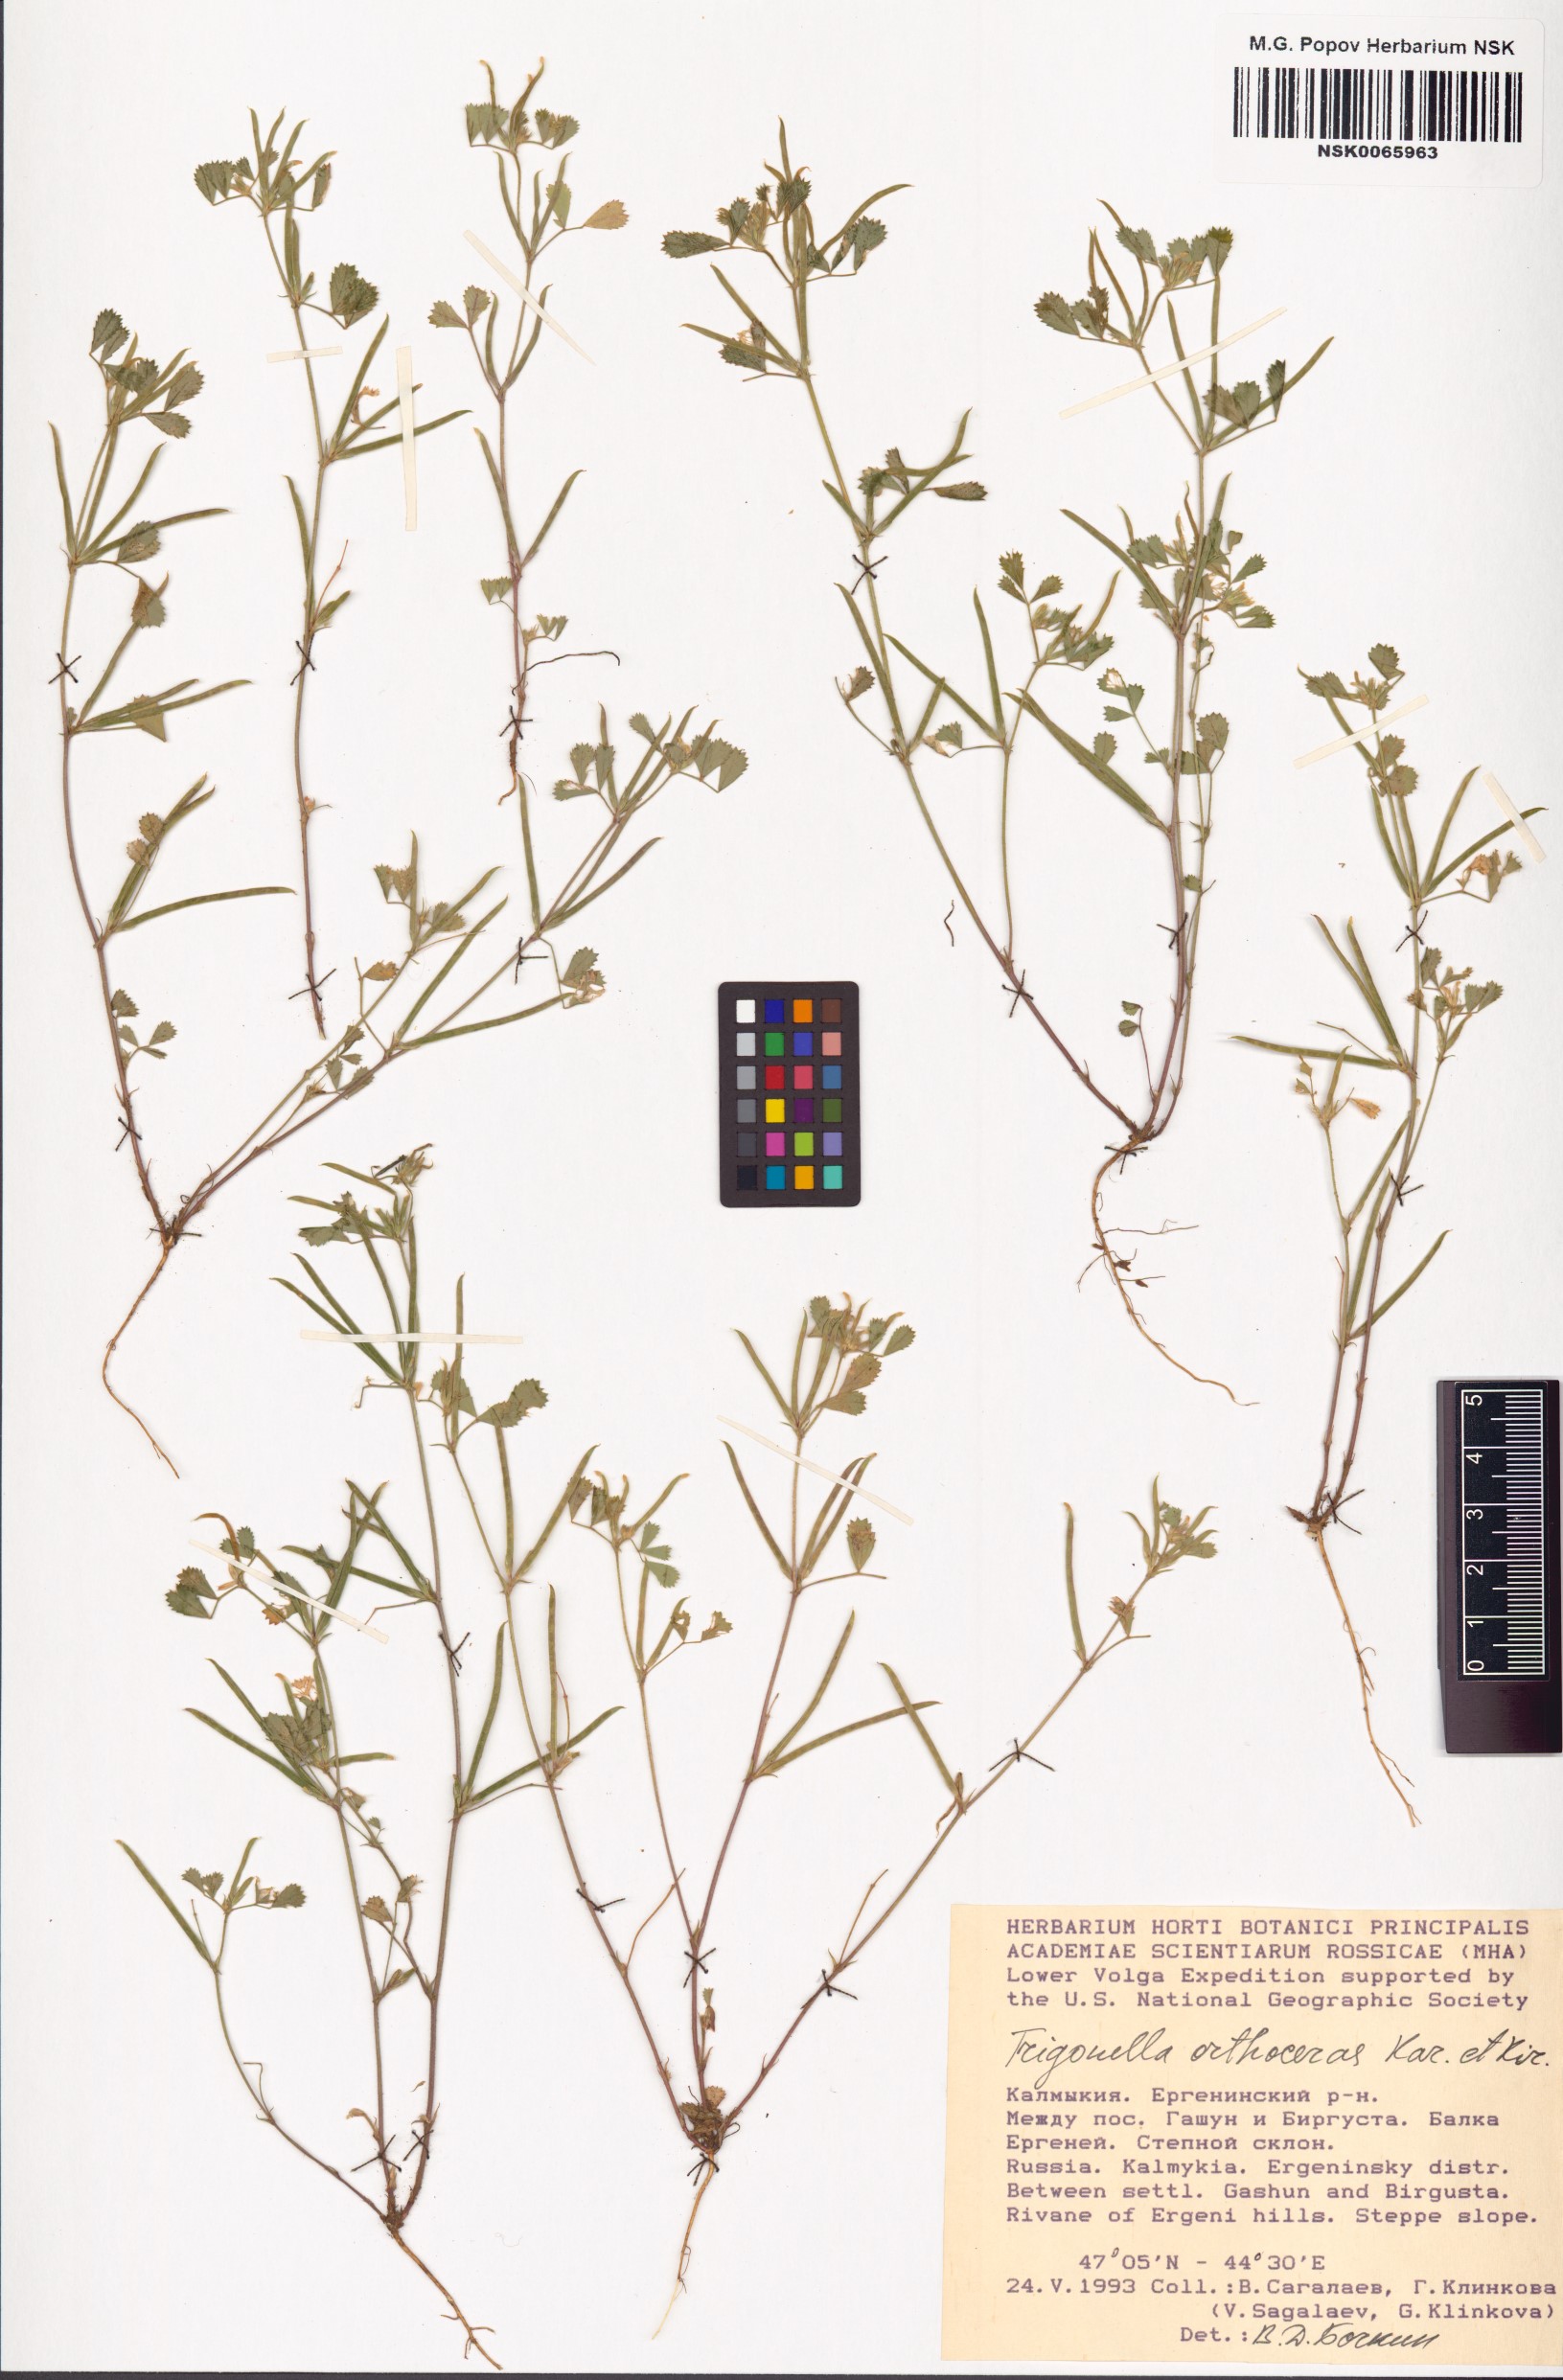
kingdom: Plantae
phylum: Tracheophyta
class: Magnoliopsida
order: Fabales
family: Fabaceae
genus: Medicago
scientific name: Medicago orthoceras
